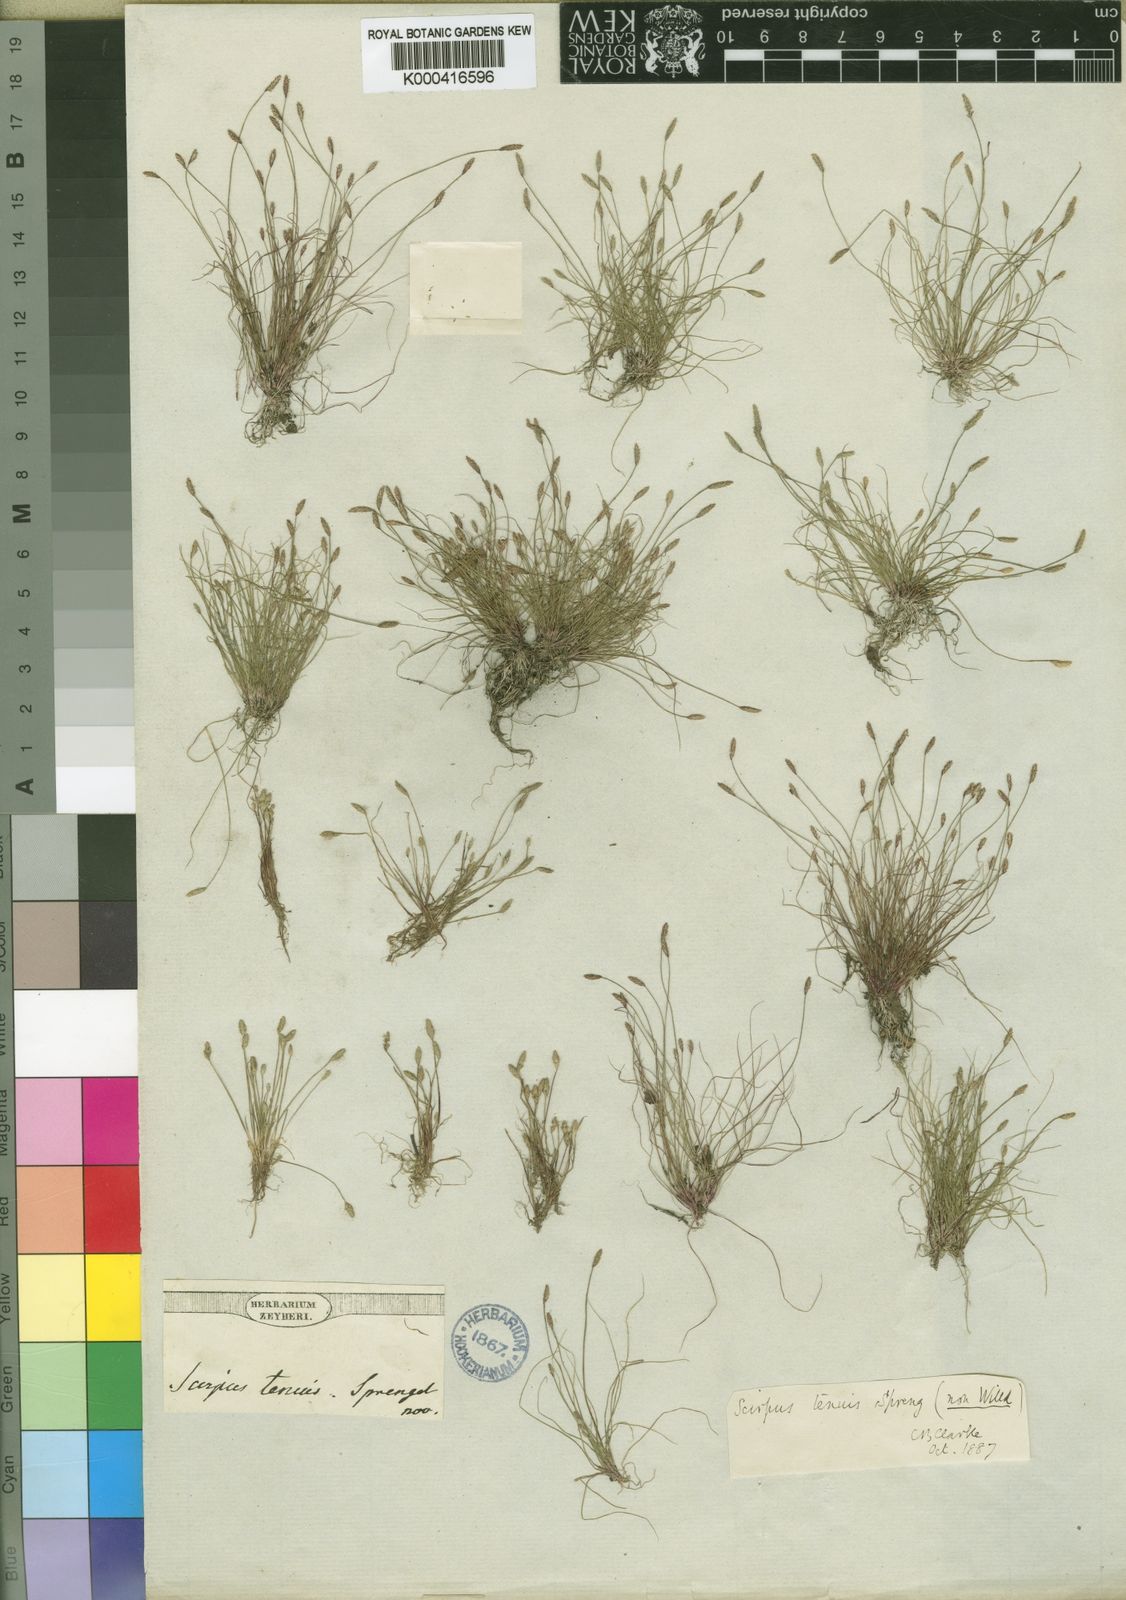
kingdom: Plantae
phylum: Tracheophyta
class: Liliopsida
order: Poales
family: Cyperaceae
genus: Isolepis
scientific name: Isolepis
